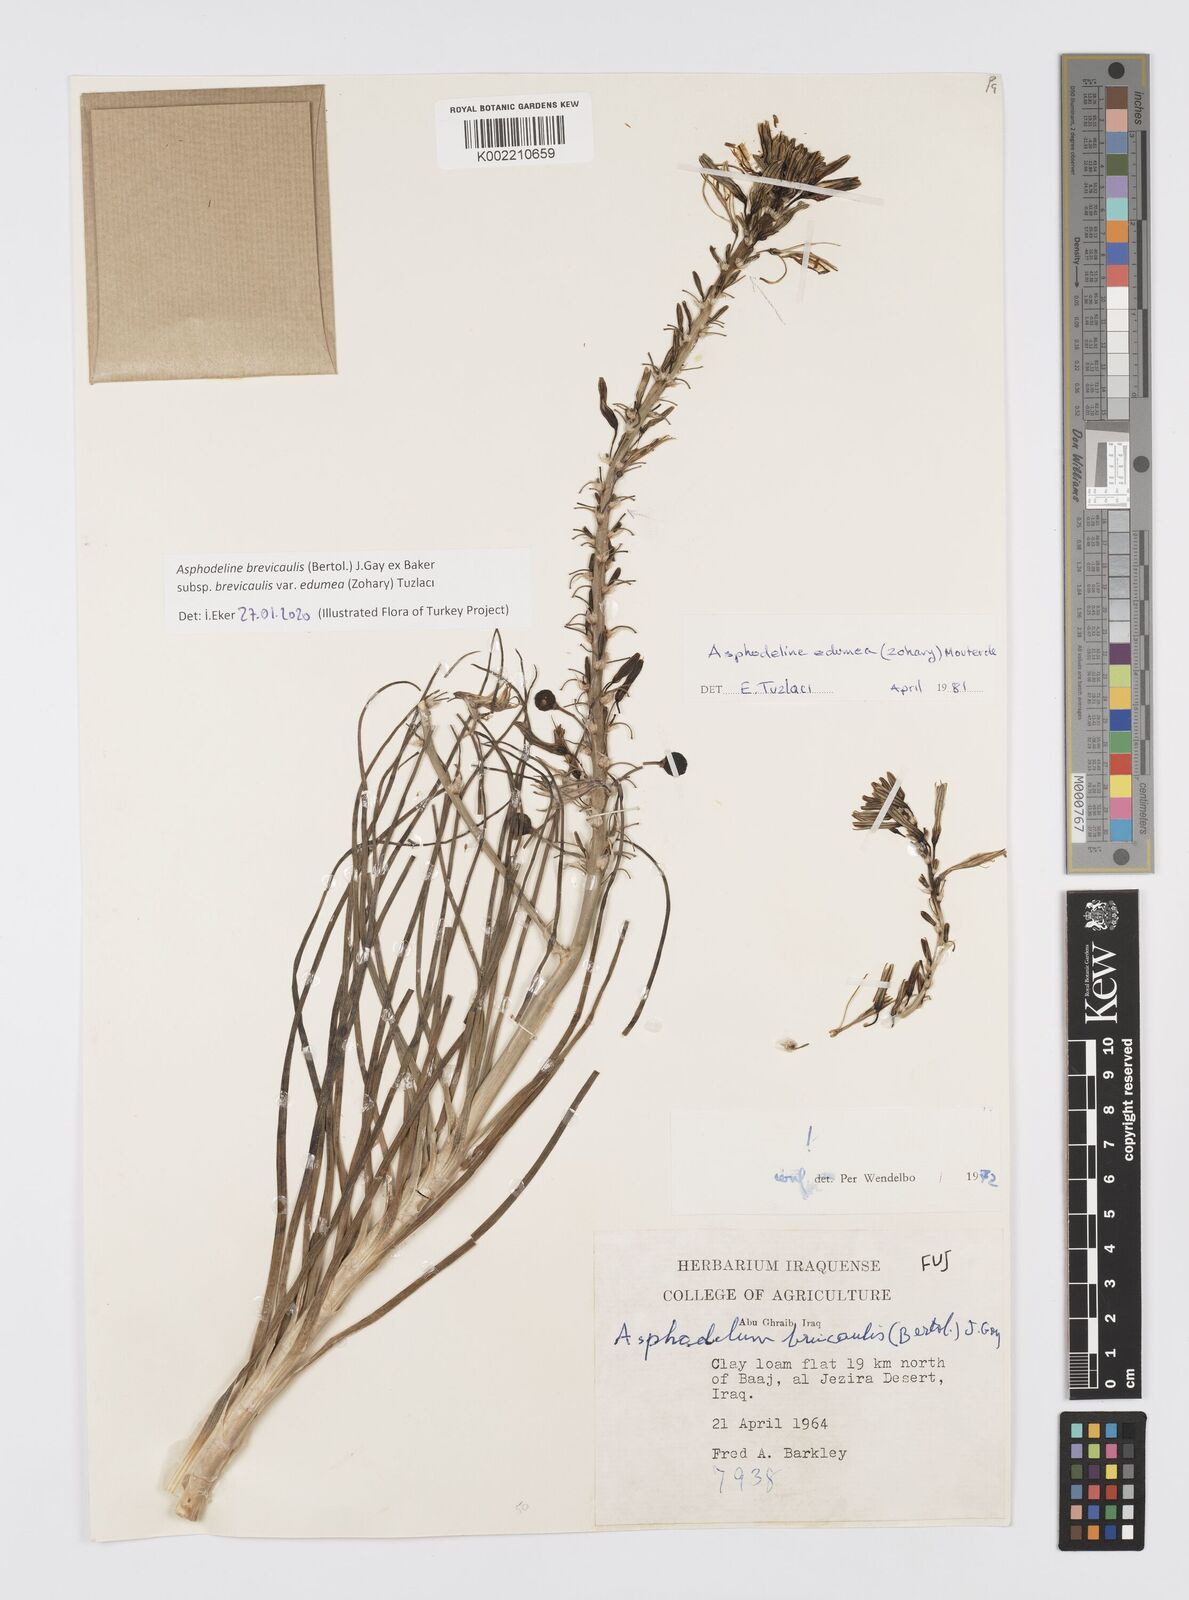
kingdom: Plantae
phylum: Tracheophyta
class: Liliopsida
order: Asparagales
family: Asphodelaceae
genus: Asphodeline
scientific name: Asphodeline brevicaulis
